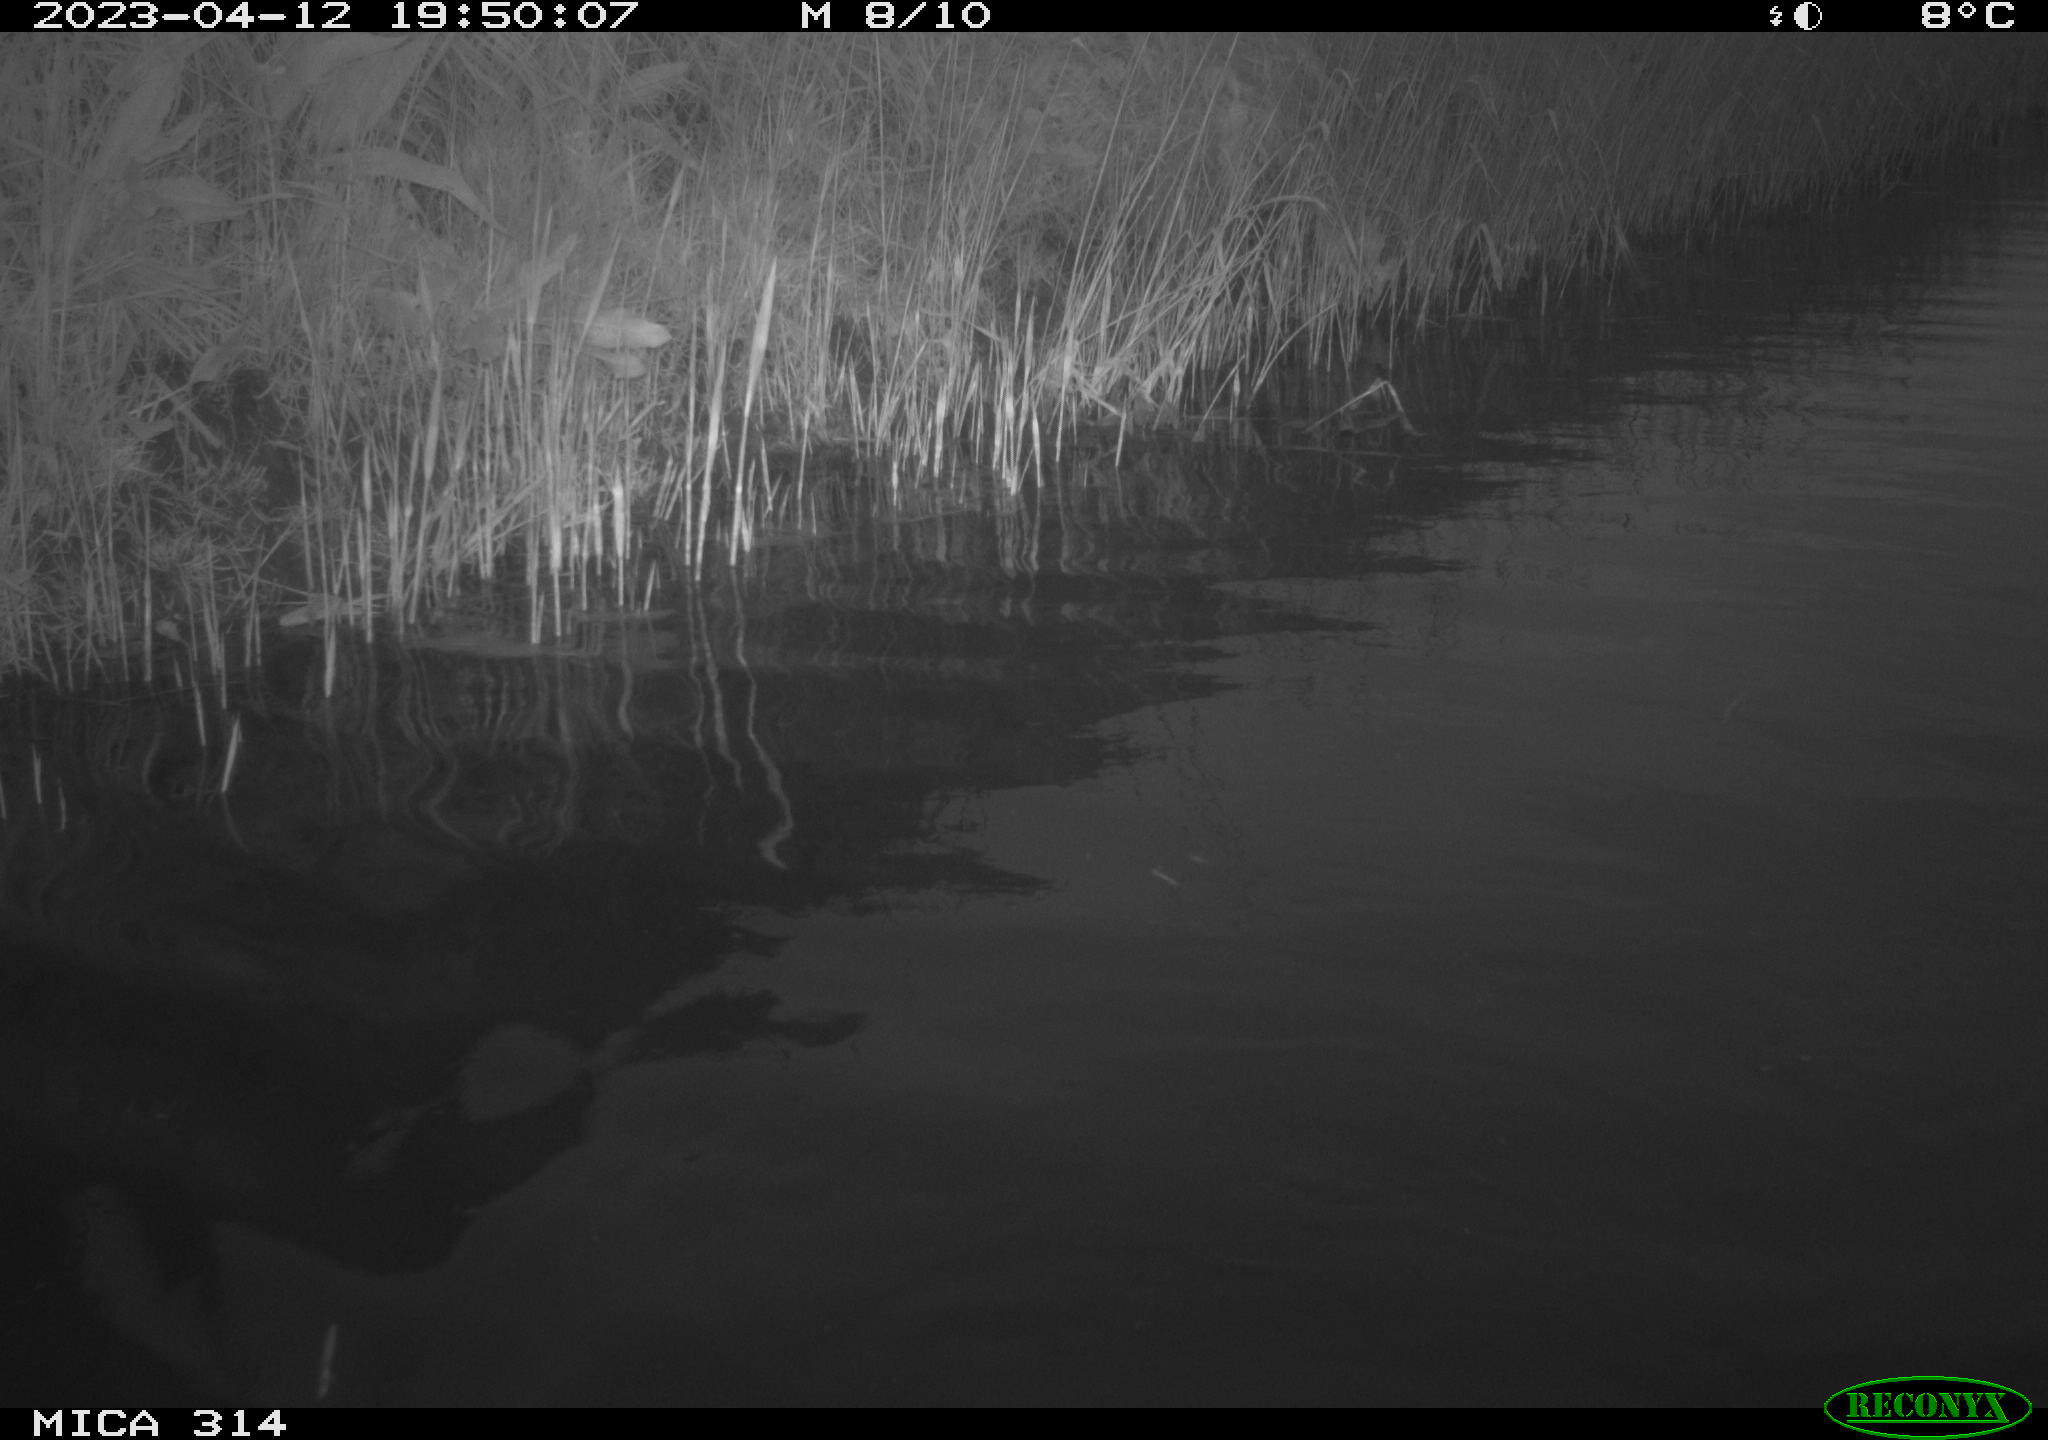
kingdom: Animalia
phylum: Chordata
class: Aves
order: Anseriformes
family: Anatidae
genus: Anas
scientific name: Anas
